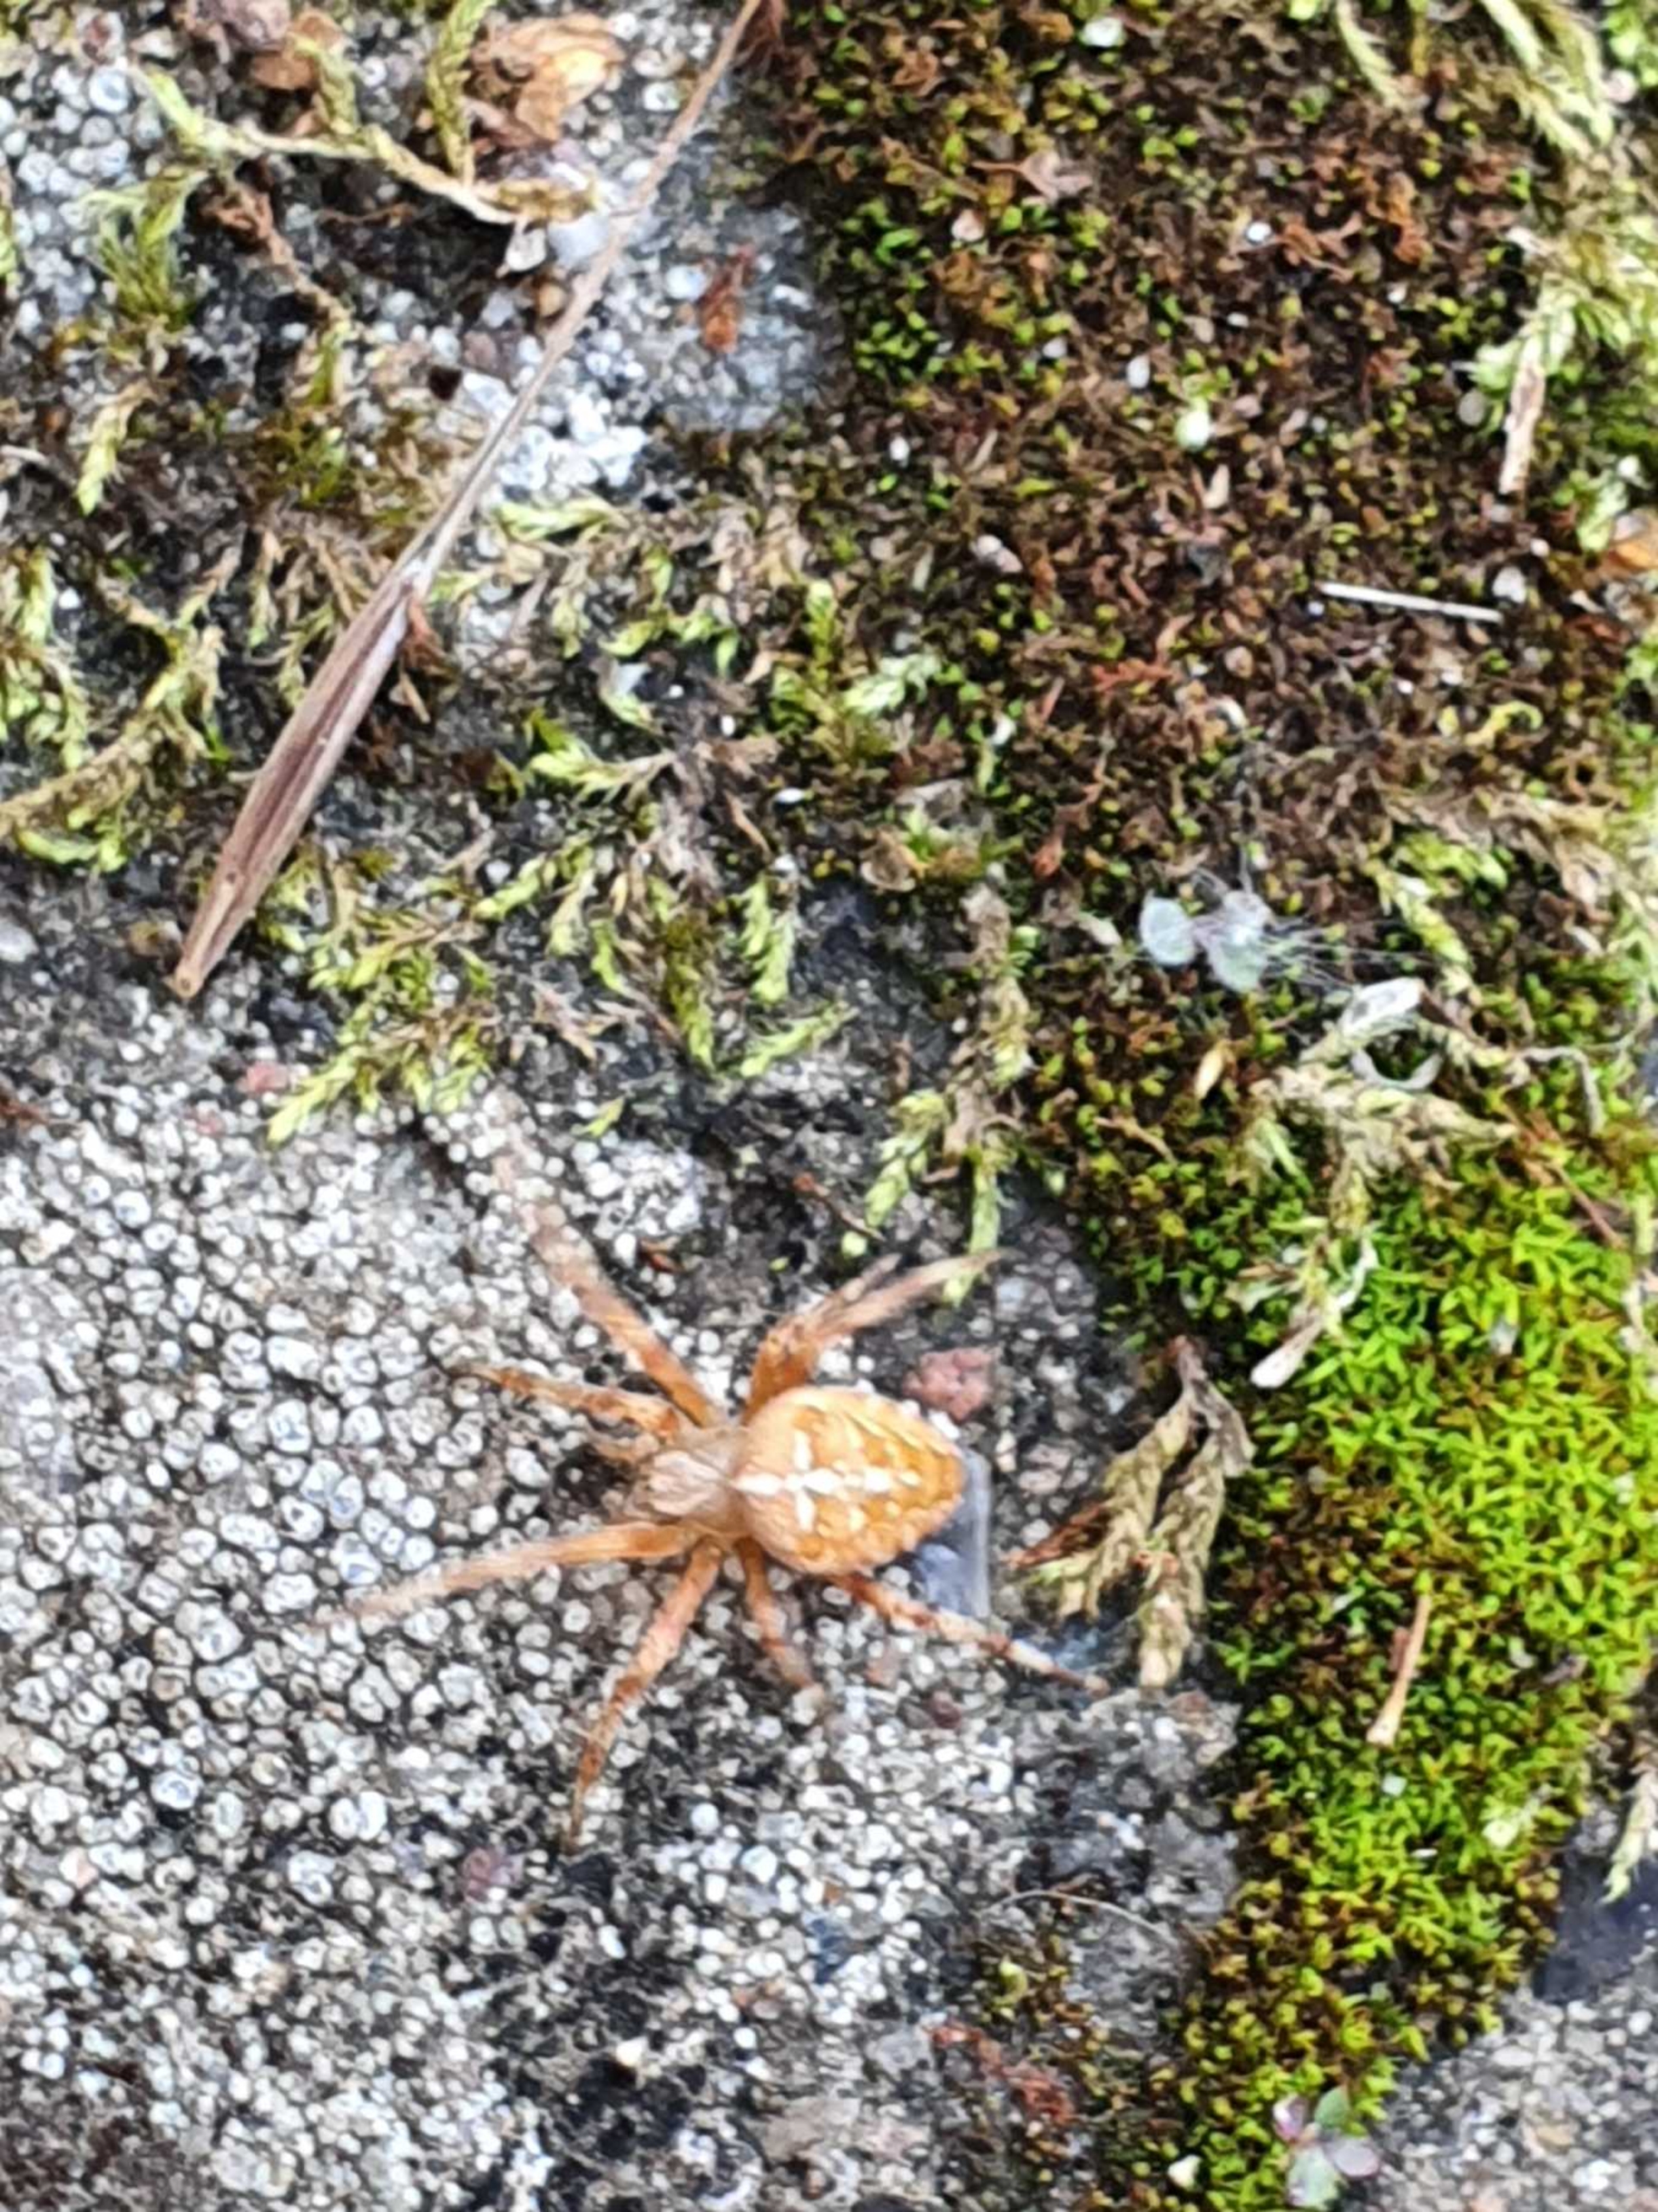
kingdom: Animalia
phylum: Arthropoda
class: Arachnida
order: Araneae
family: Araneidae
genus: Araneus
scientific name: Araneus diadematus
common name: Korsedderkop
